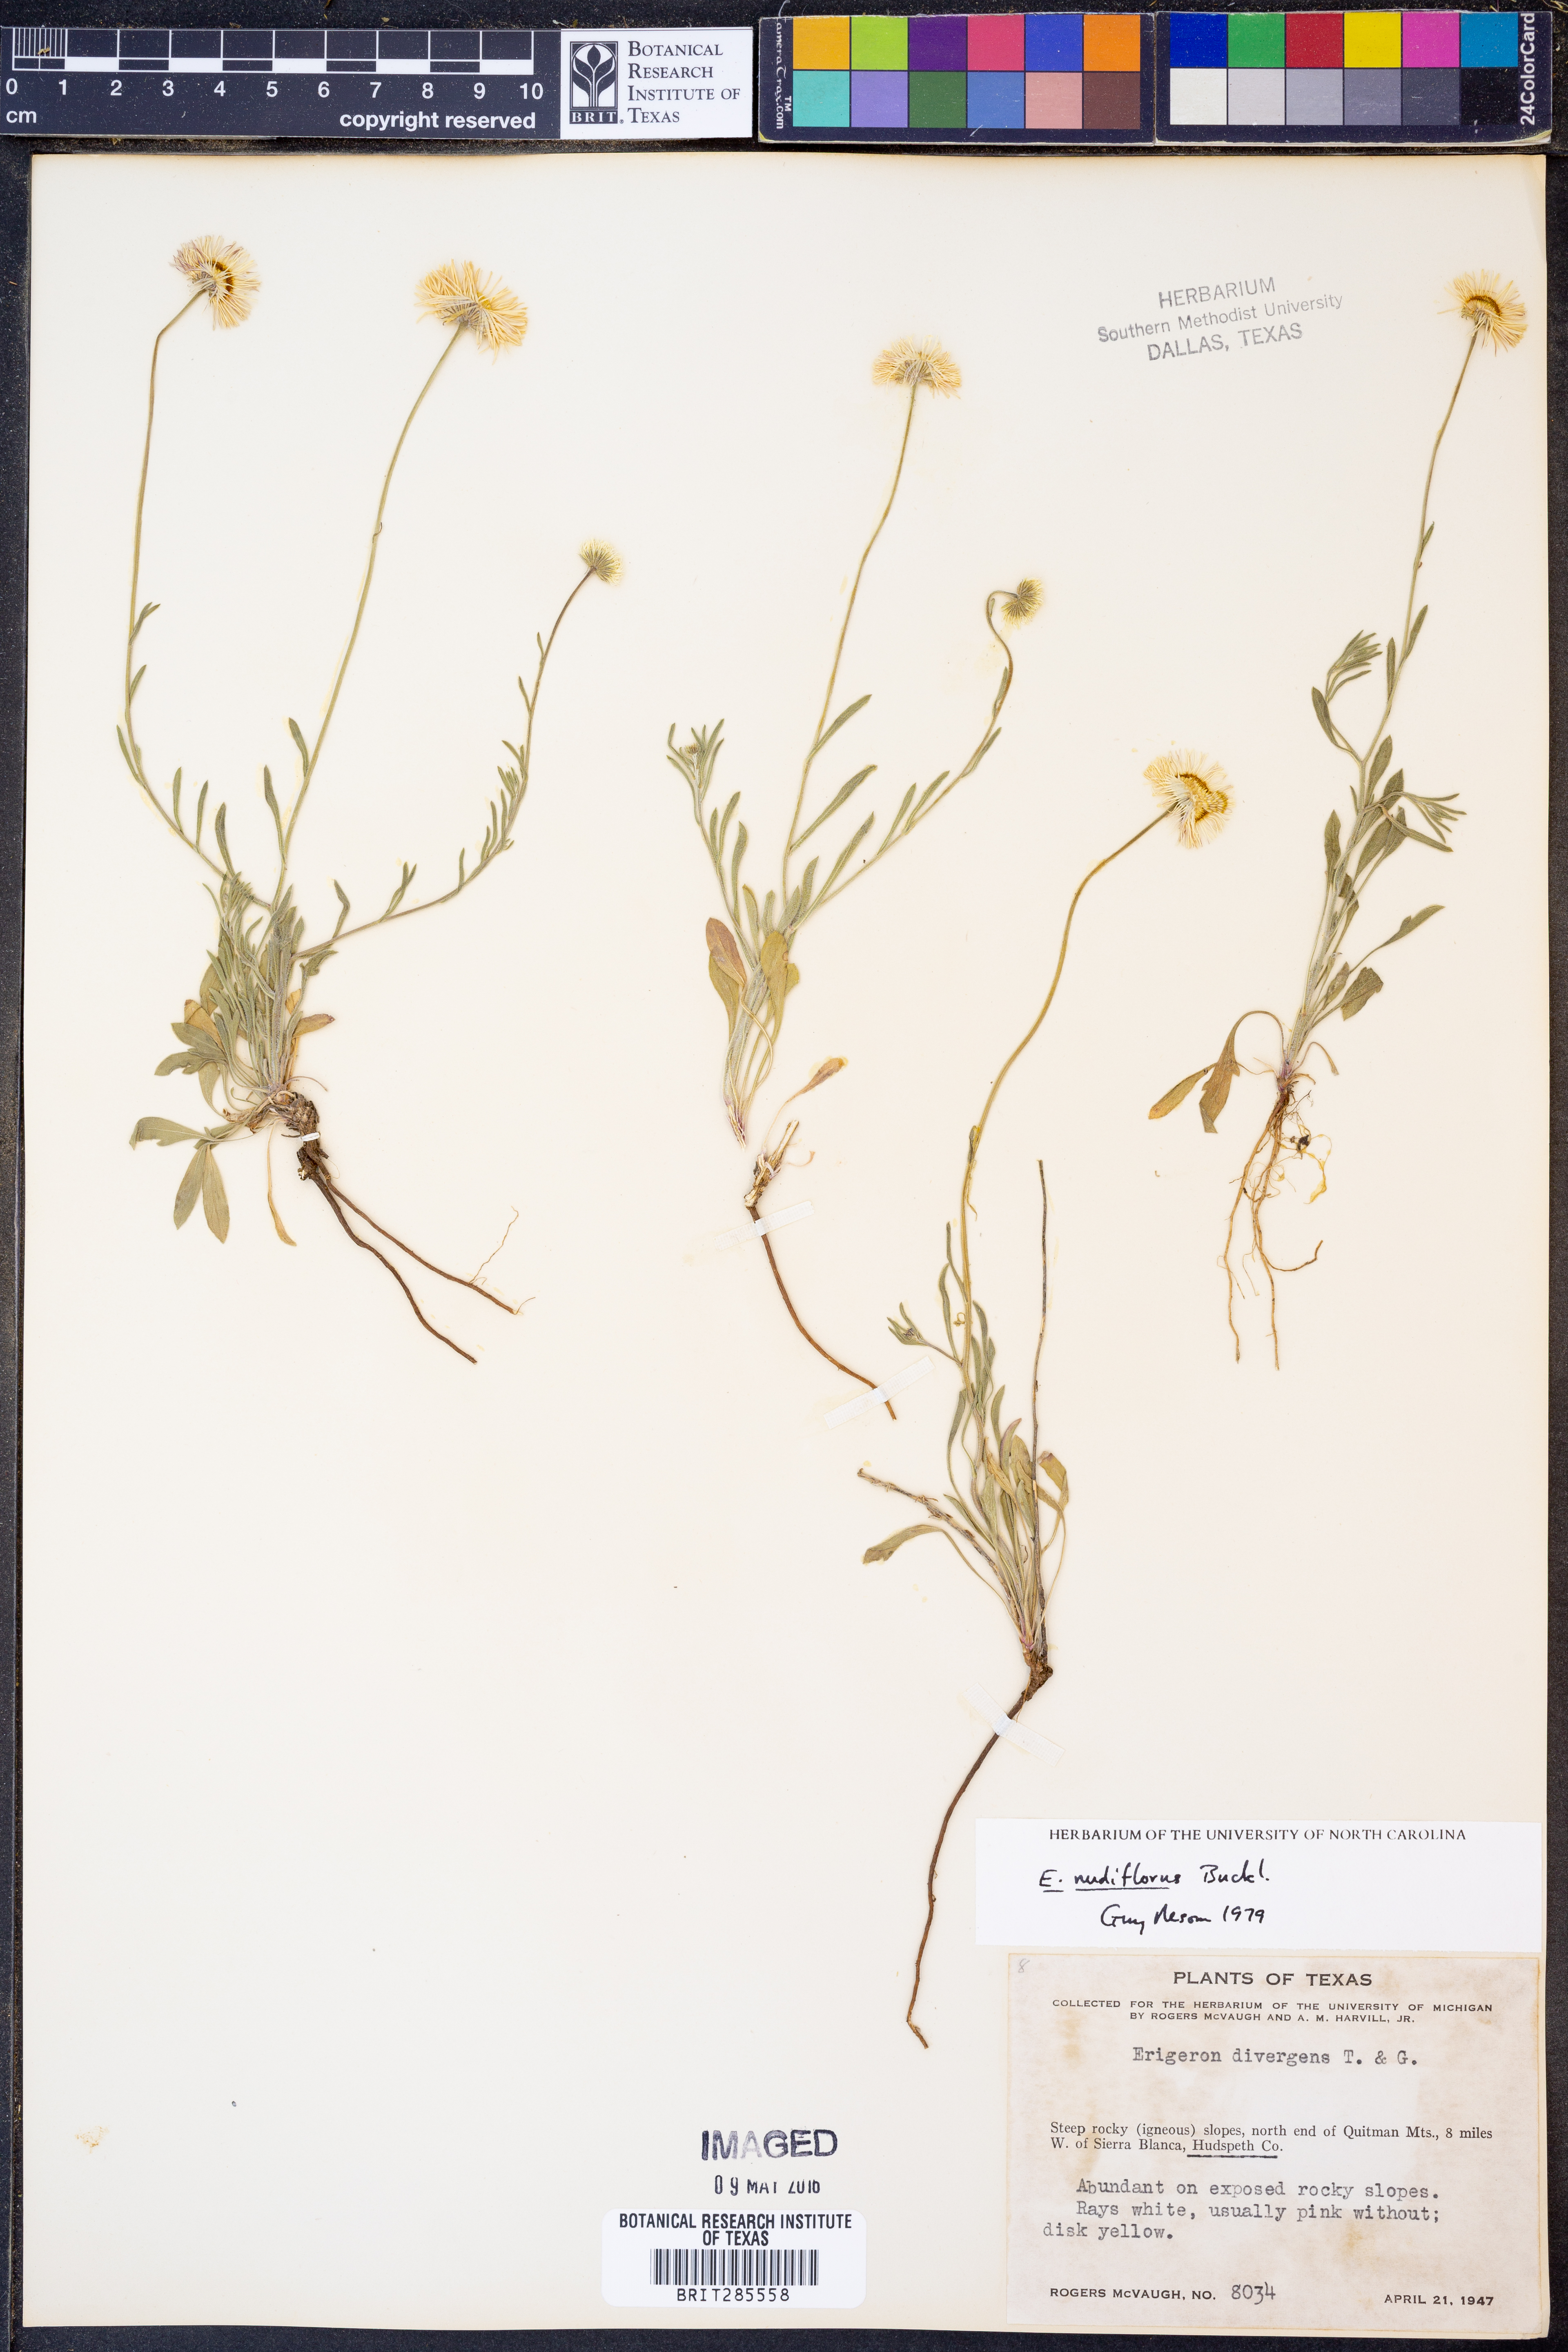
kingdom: Plantae
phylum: Tracheophyta
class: Magnoliopsida
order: Asterales
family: Asteraceae
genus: Erigeron
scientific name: Erigeron flagellaris
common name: Running fleabane
